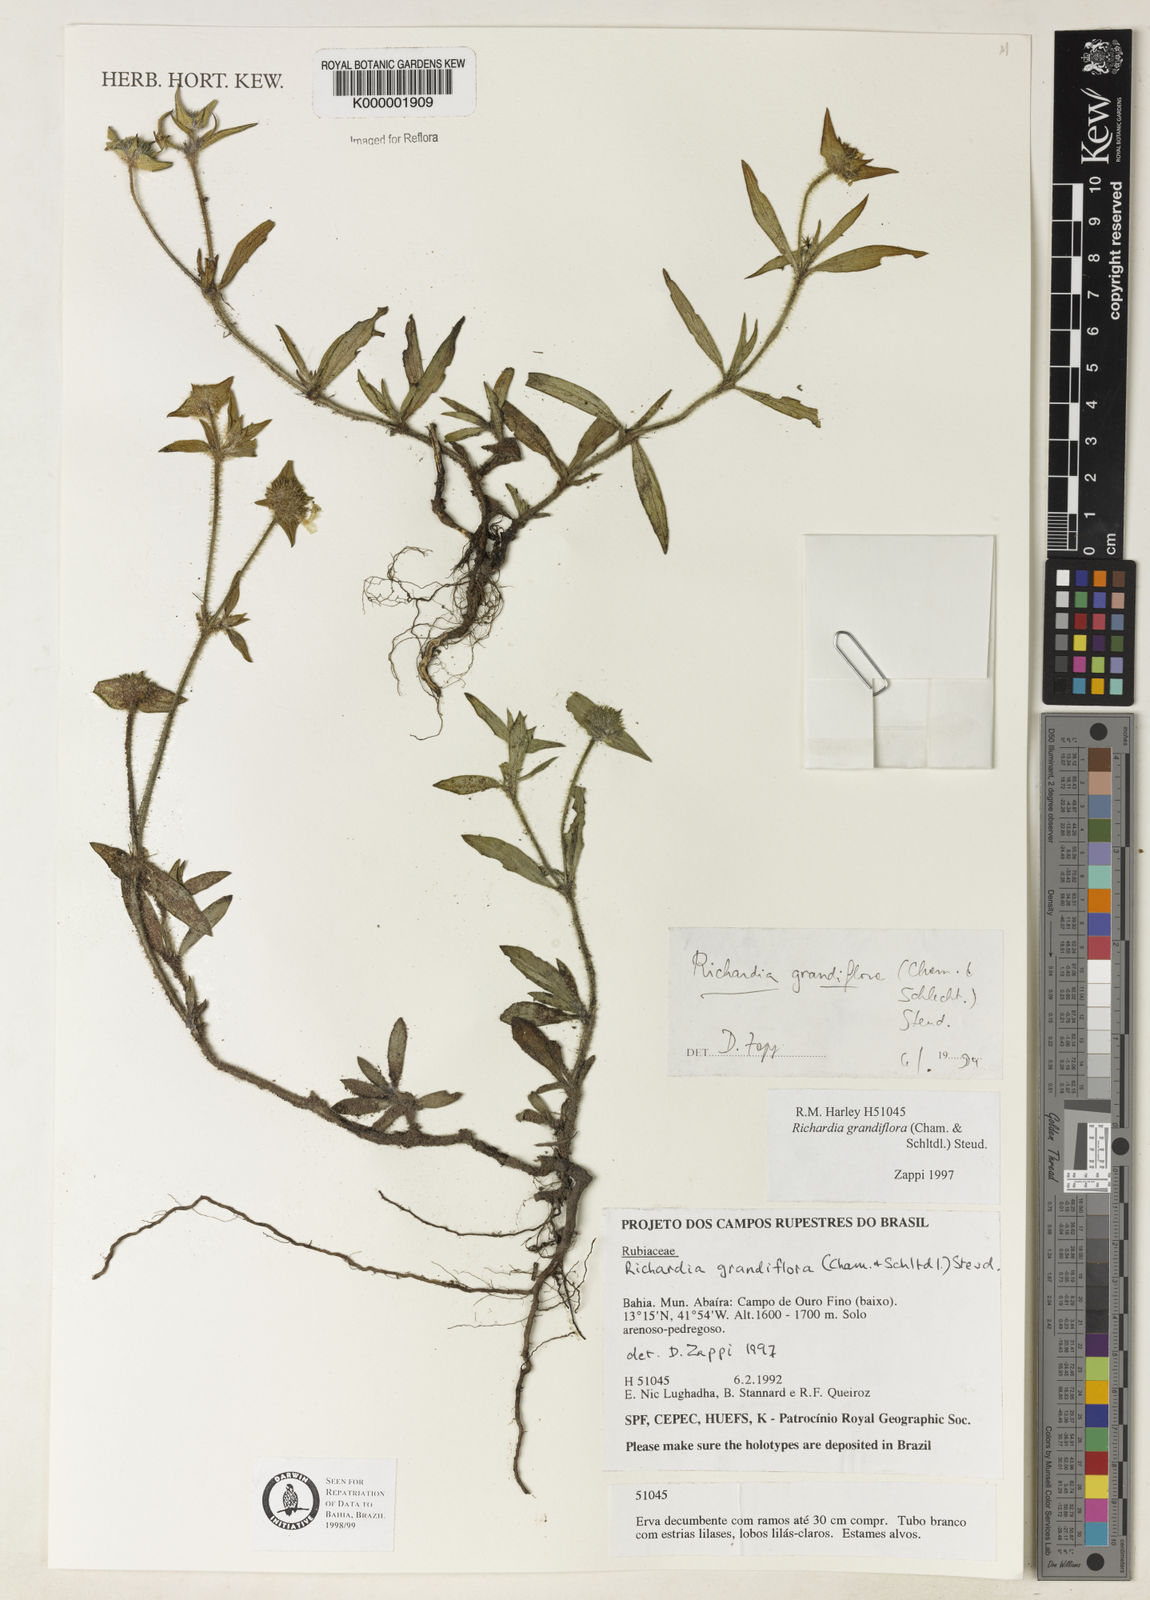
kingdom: Plantae
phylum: Tracheophyta
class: Magnoliopsida
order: Gentianales
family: Rubiaceae
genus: Richardia
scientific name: Richardia grandiflora
